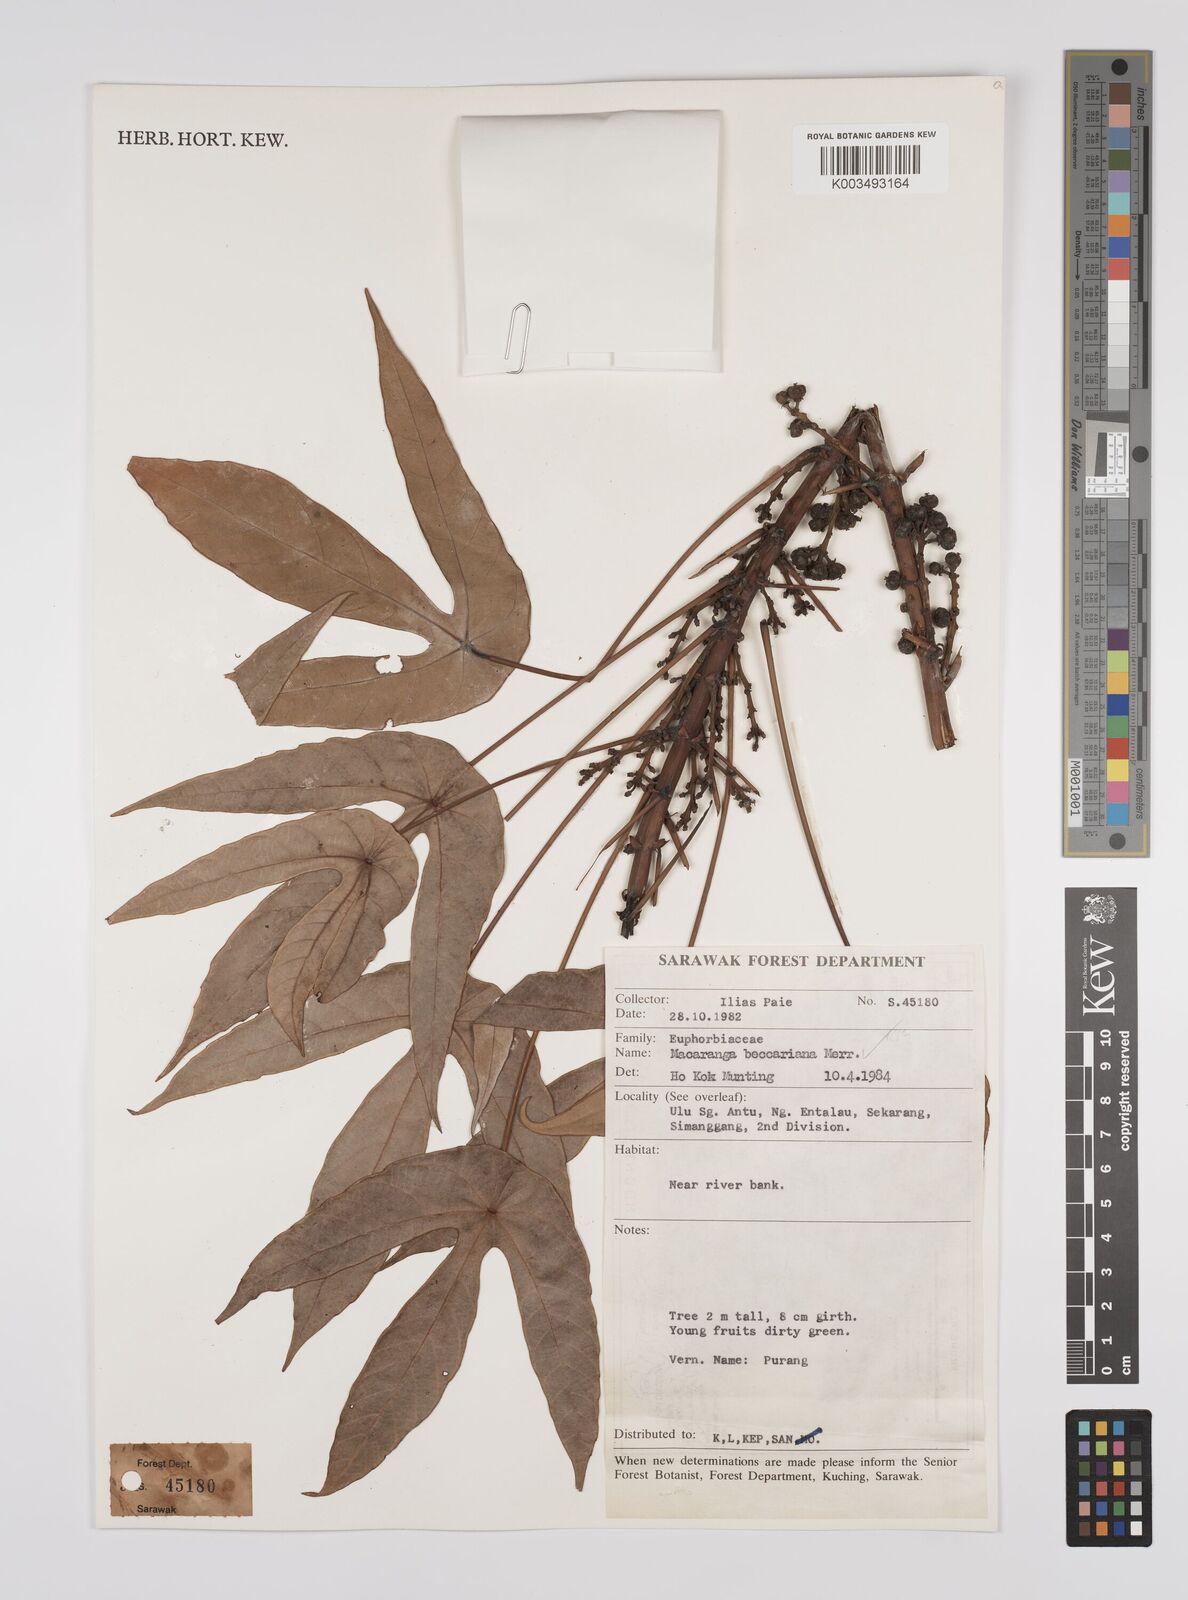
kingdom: Plantae
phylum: Tracheophyta
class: Magnoliopsida
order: Malpighiales
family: Euphorbiaceae
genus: Macaranga
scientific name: Macaranga beccariana
